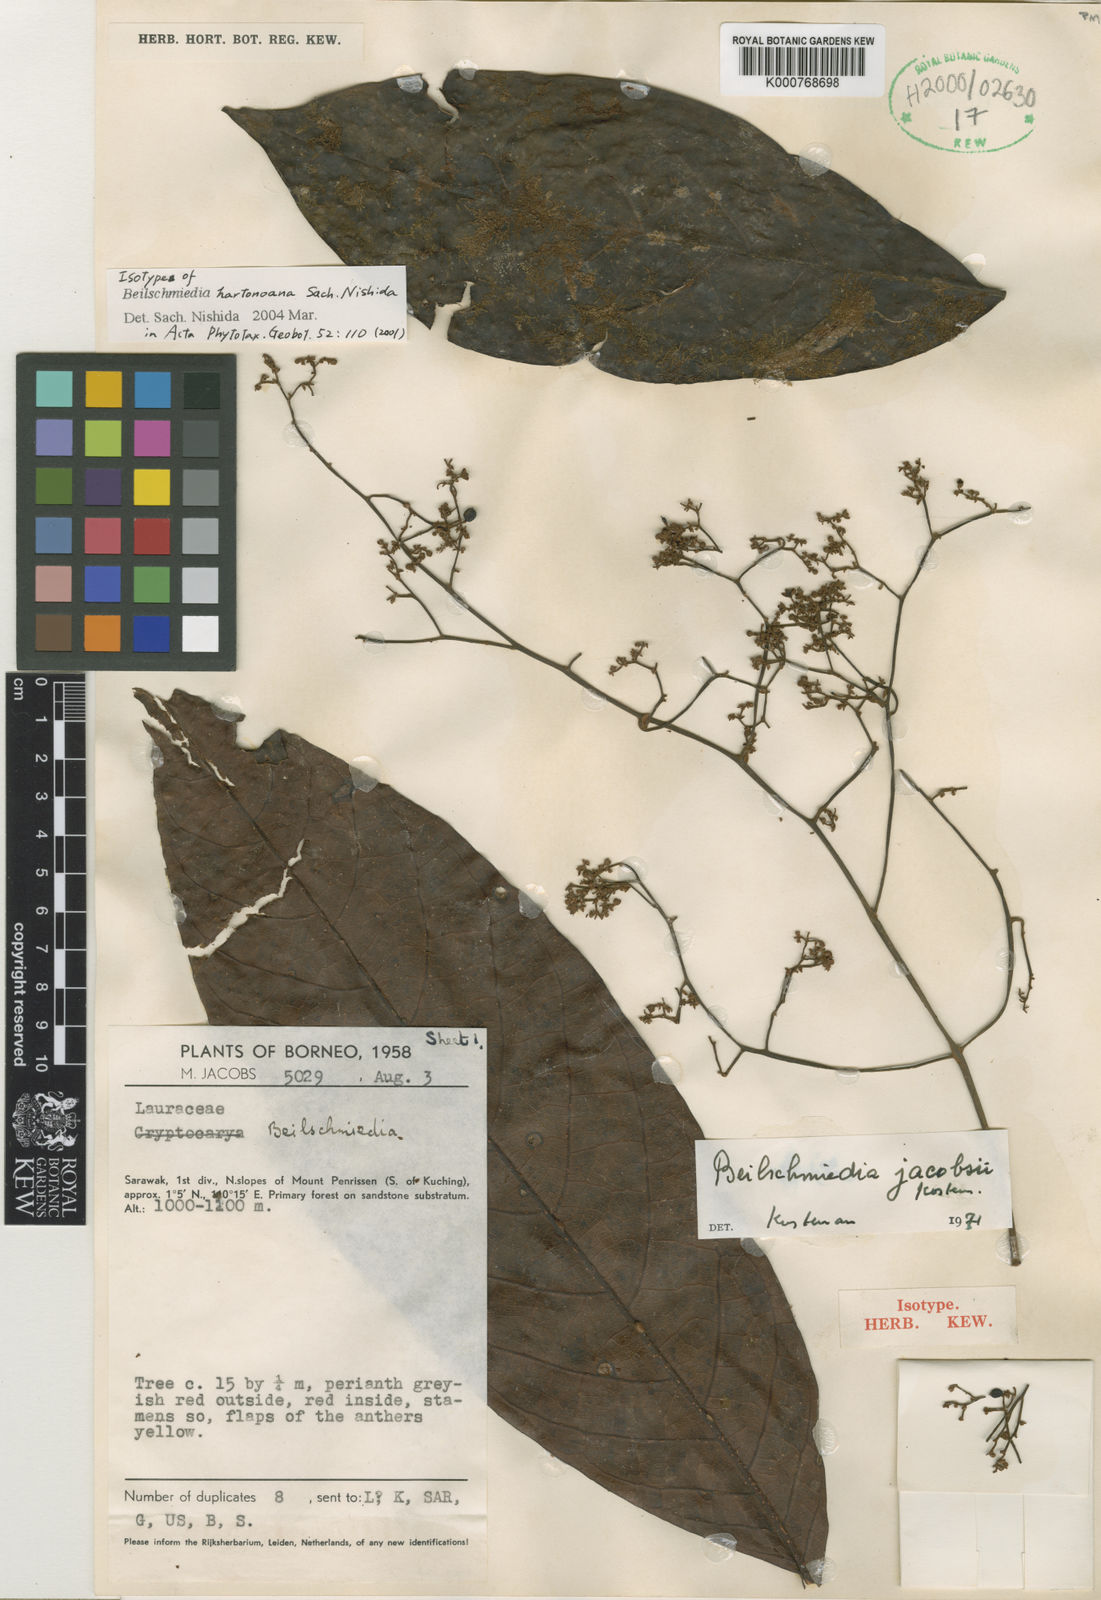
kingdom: Plantae
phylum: Tracheophyta
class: Magnoliopsida
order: Laurales
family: Lauraceae
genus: Beilschmiedia
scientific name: Beilschmiedia
